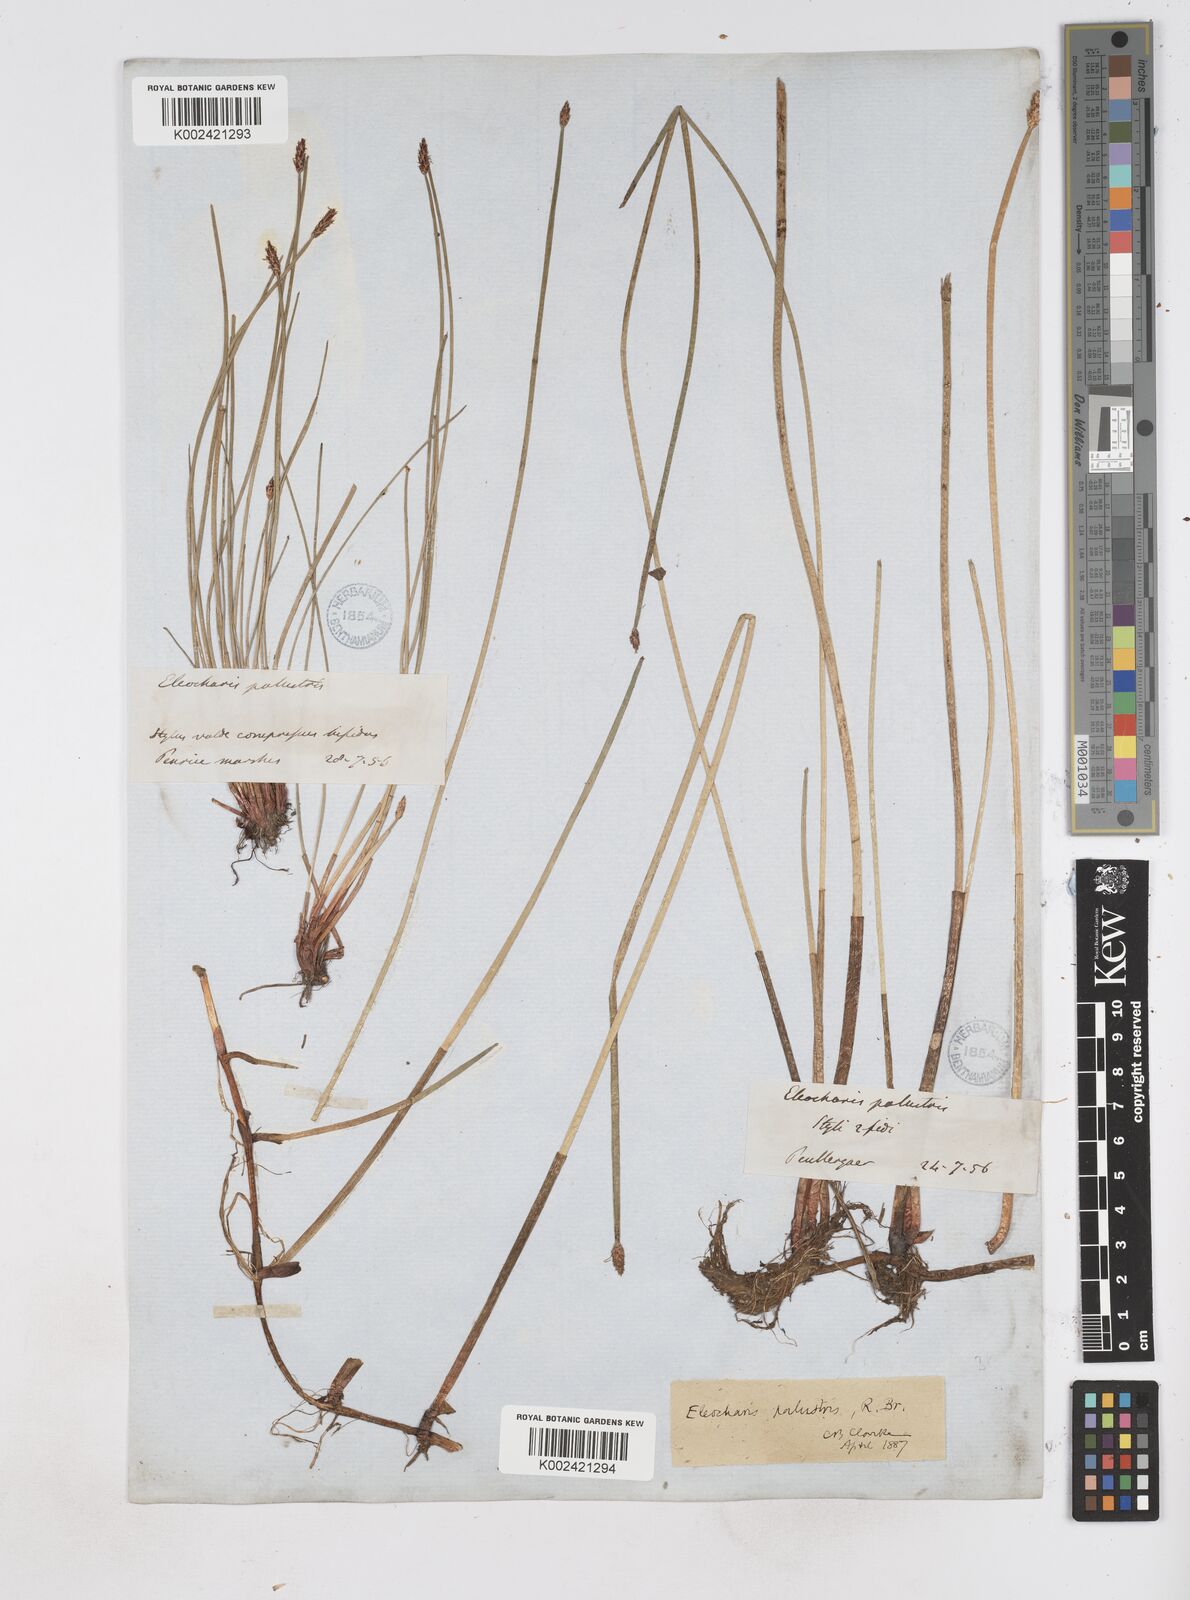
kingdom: Plantae
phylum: Tracheophyta
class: Liliopsida
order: Poales
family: Cyperaceae
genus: Eleocharis
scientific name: Eleocharis palustris
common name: Common spike-rush
